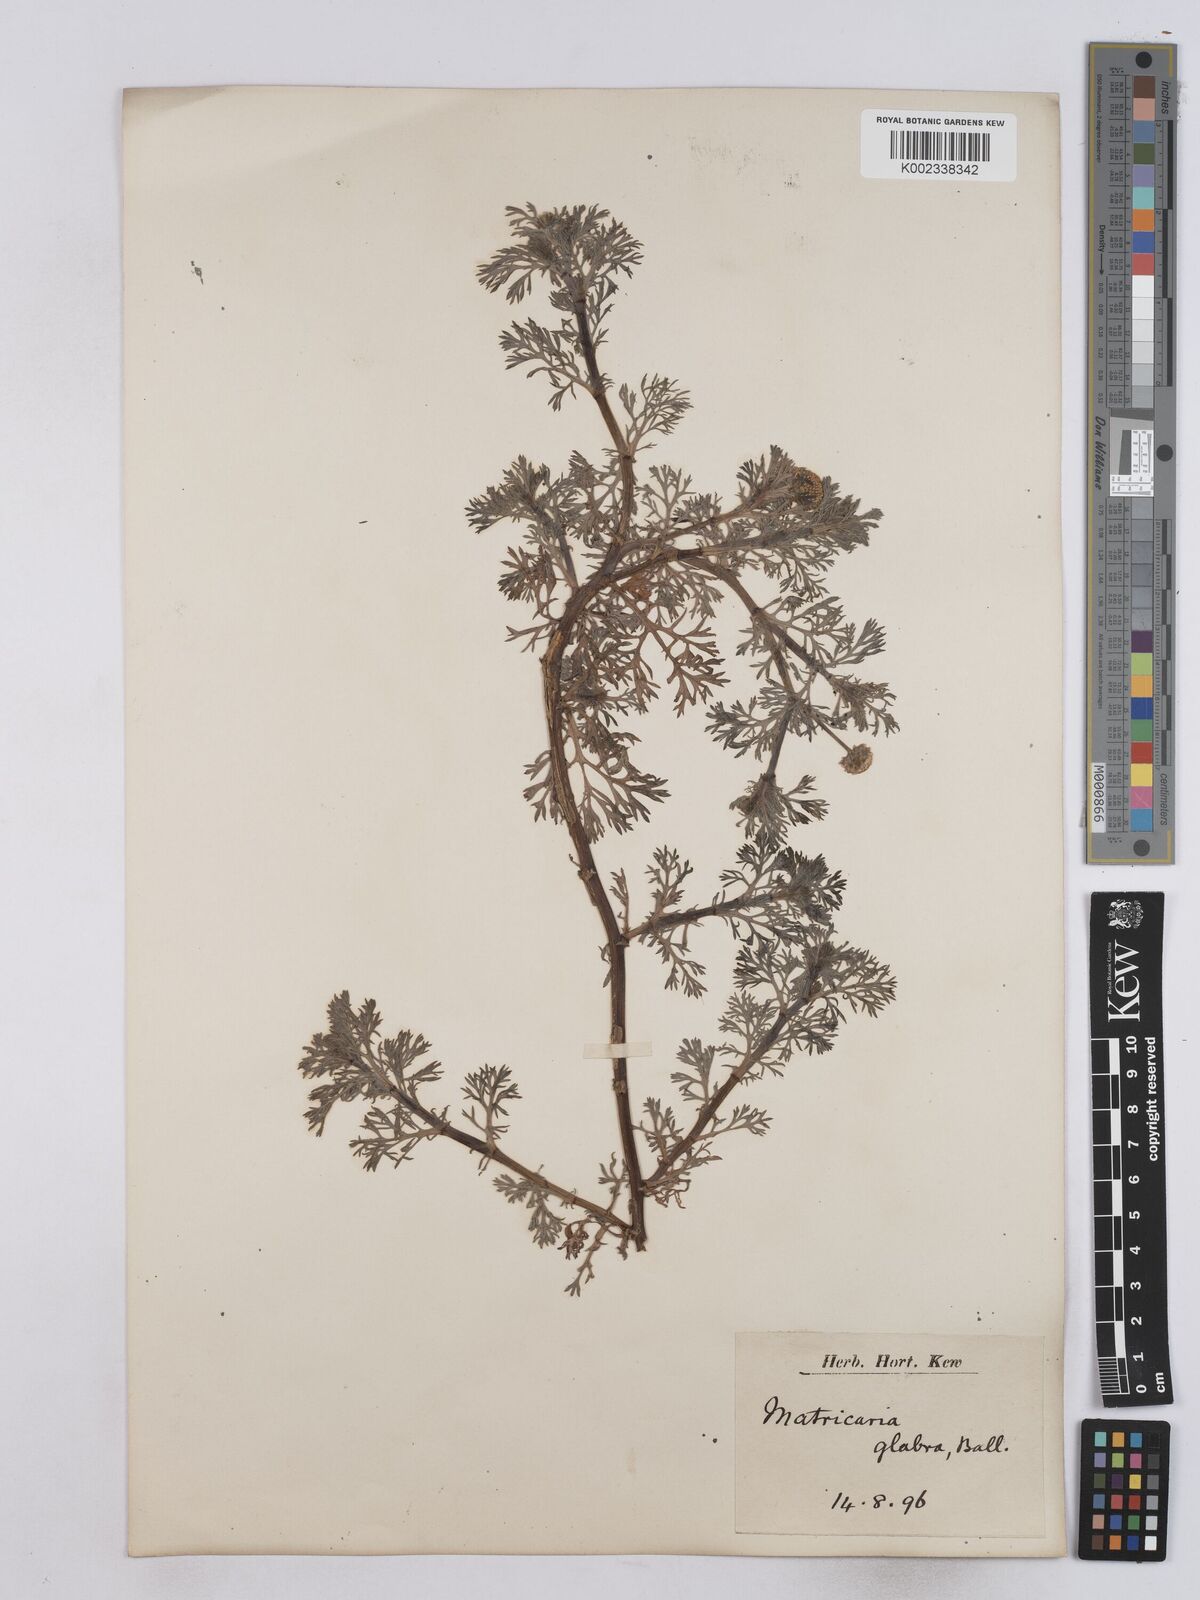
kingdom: Plantae
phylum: Tracheophyta
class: Magnoliopsida
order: Asterales
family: Asteraceae
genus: Otospermum
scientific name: Otospermum glabrum
